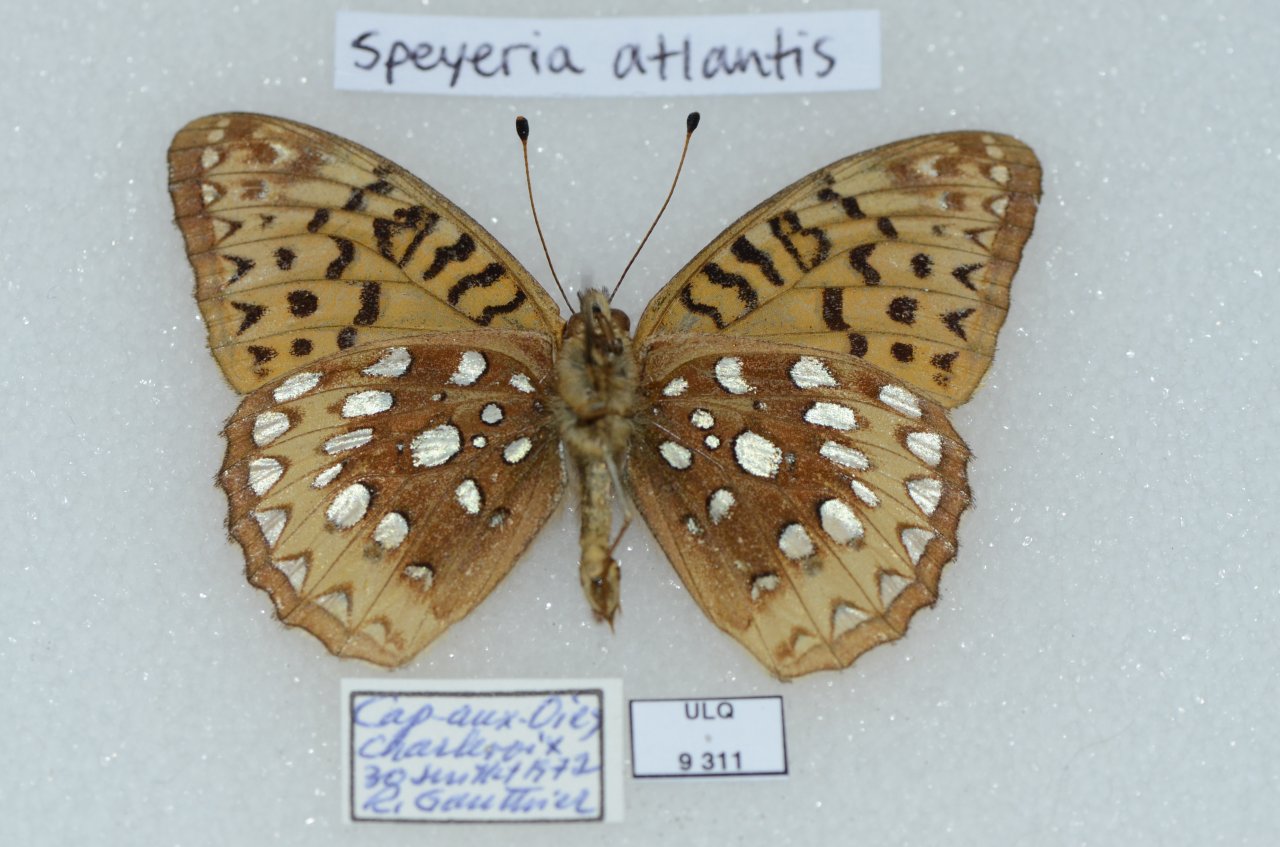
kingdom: Animalia
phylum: Arthropoda
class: Insecta
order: Lepidoptera
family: Nymphalidae
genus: Speyeria
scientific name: Speyeria cybele
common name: Great Spangled Fritillary
